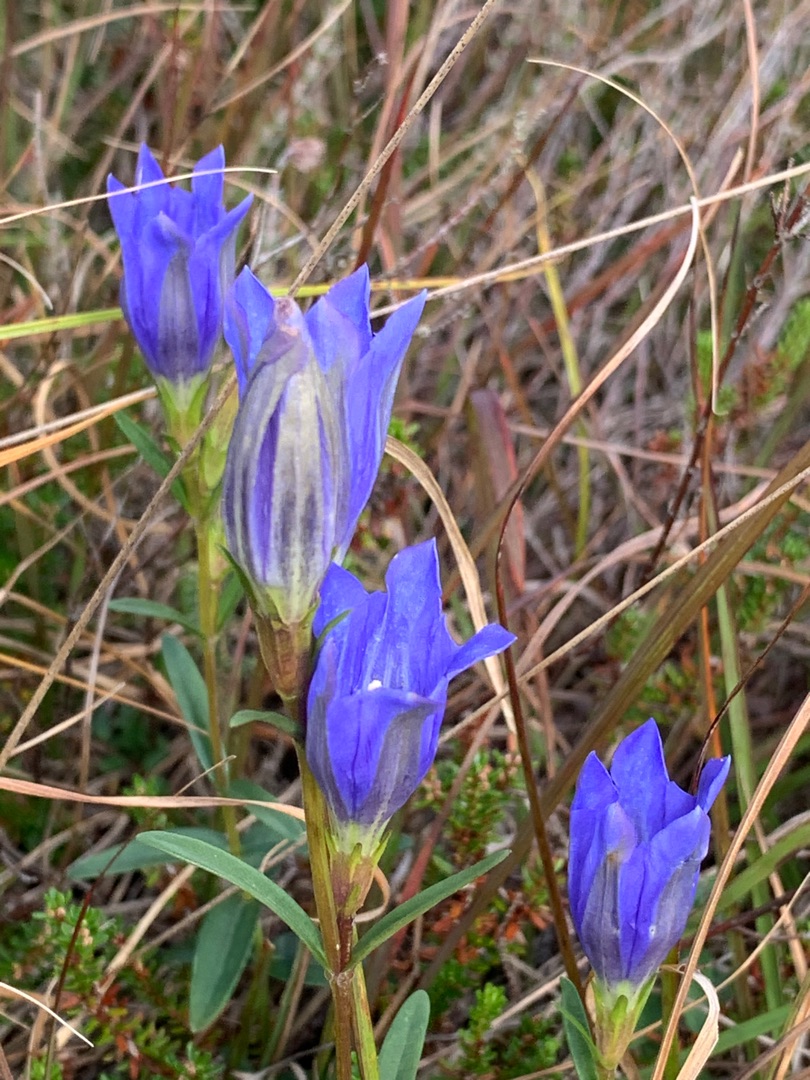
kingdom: Plantae
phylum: Tracheophyta
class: Magnoliopsida
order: Gentianales
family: Gentianaceae
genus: Gentiana
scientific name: Gentiana pneumonanthe
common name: Klokke-ensian
